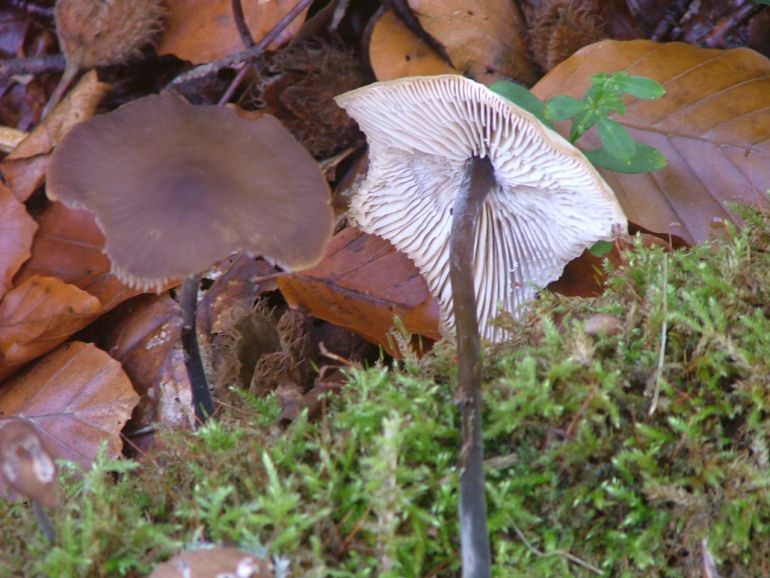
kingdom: Fungi
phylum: Basidiomycota
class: Agaricomycetes
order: Agaricales
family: Omphalotaceae
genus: Mycetinis
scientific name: Mycetinis alliaceus
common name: stor løghat
